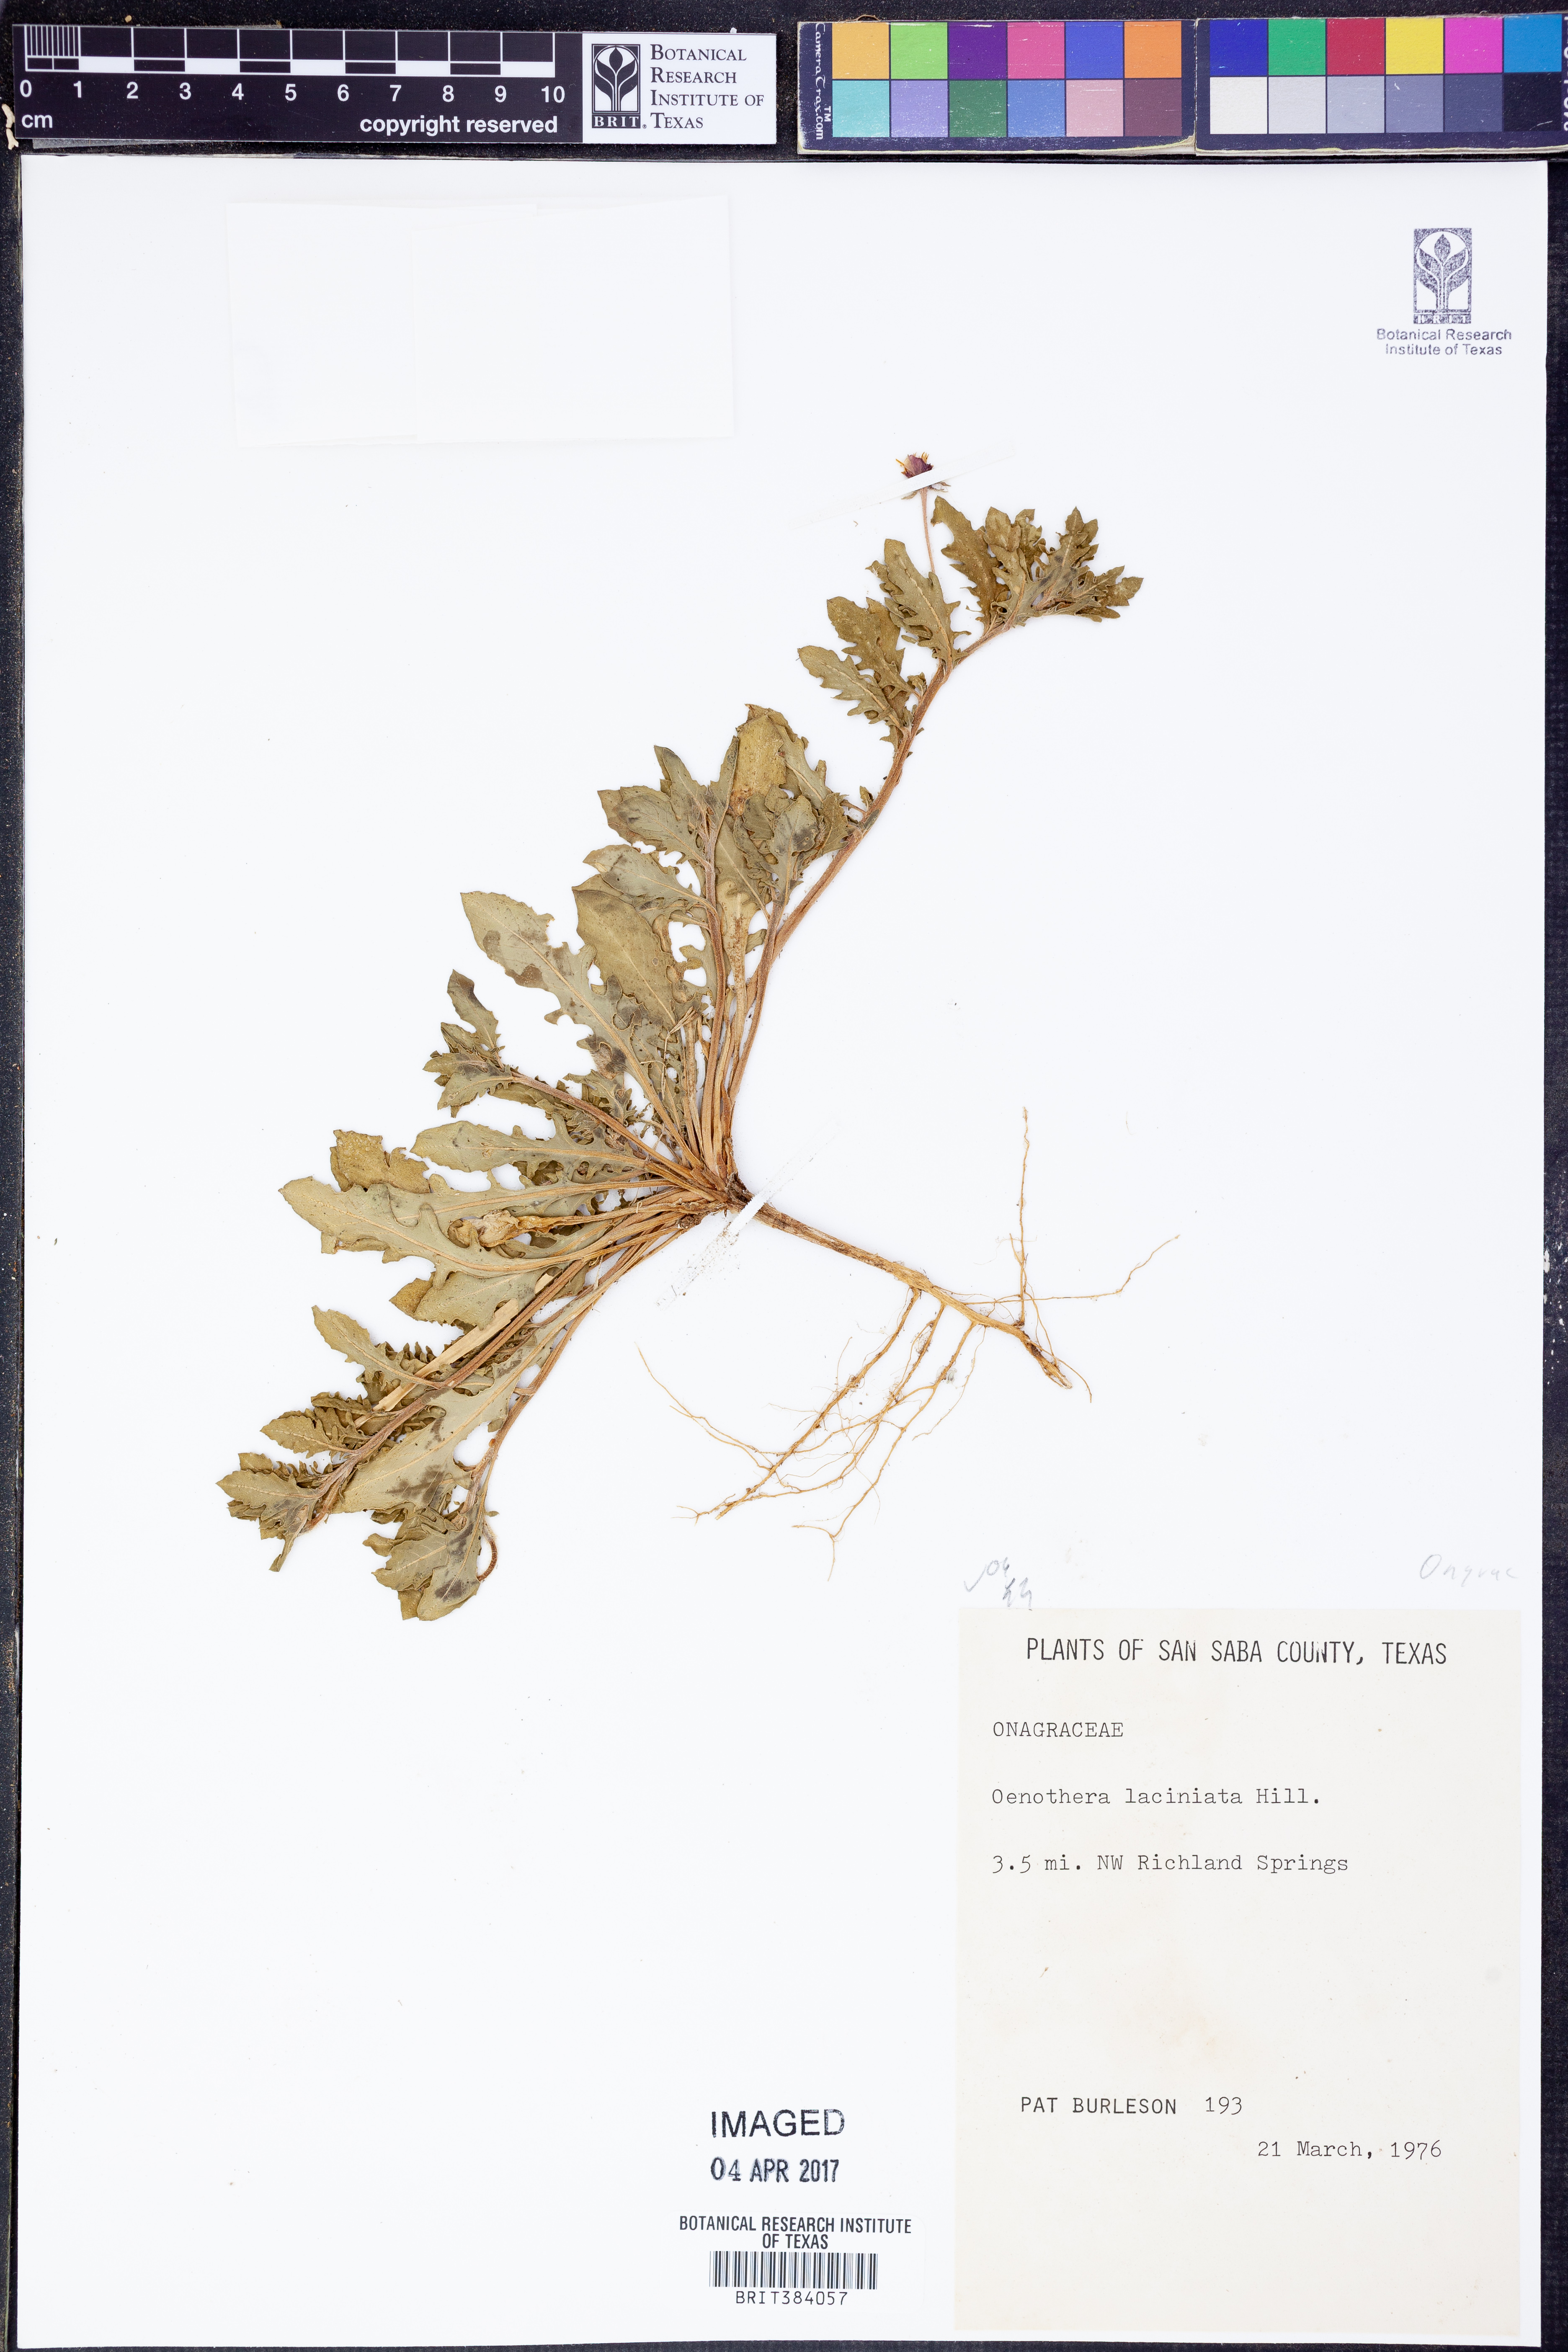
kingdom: Plantae
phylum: Tracheophyta
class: Magnoliopsida
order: Myrtales
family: Onagraceae
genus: Oenothera
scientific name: Oenothera laciniata
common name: Cut-leaved evening-primrose
